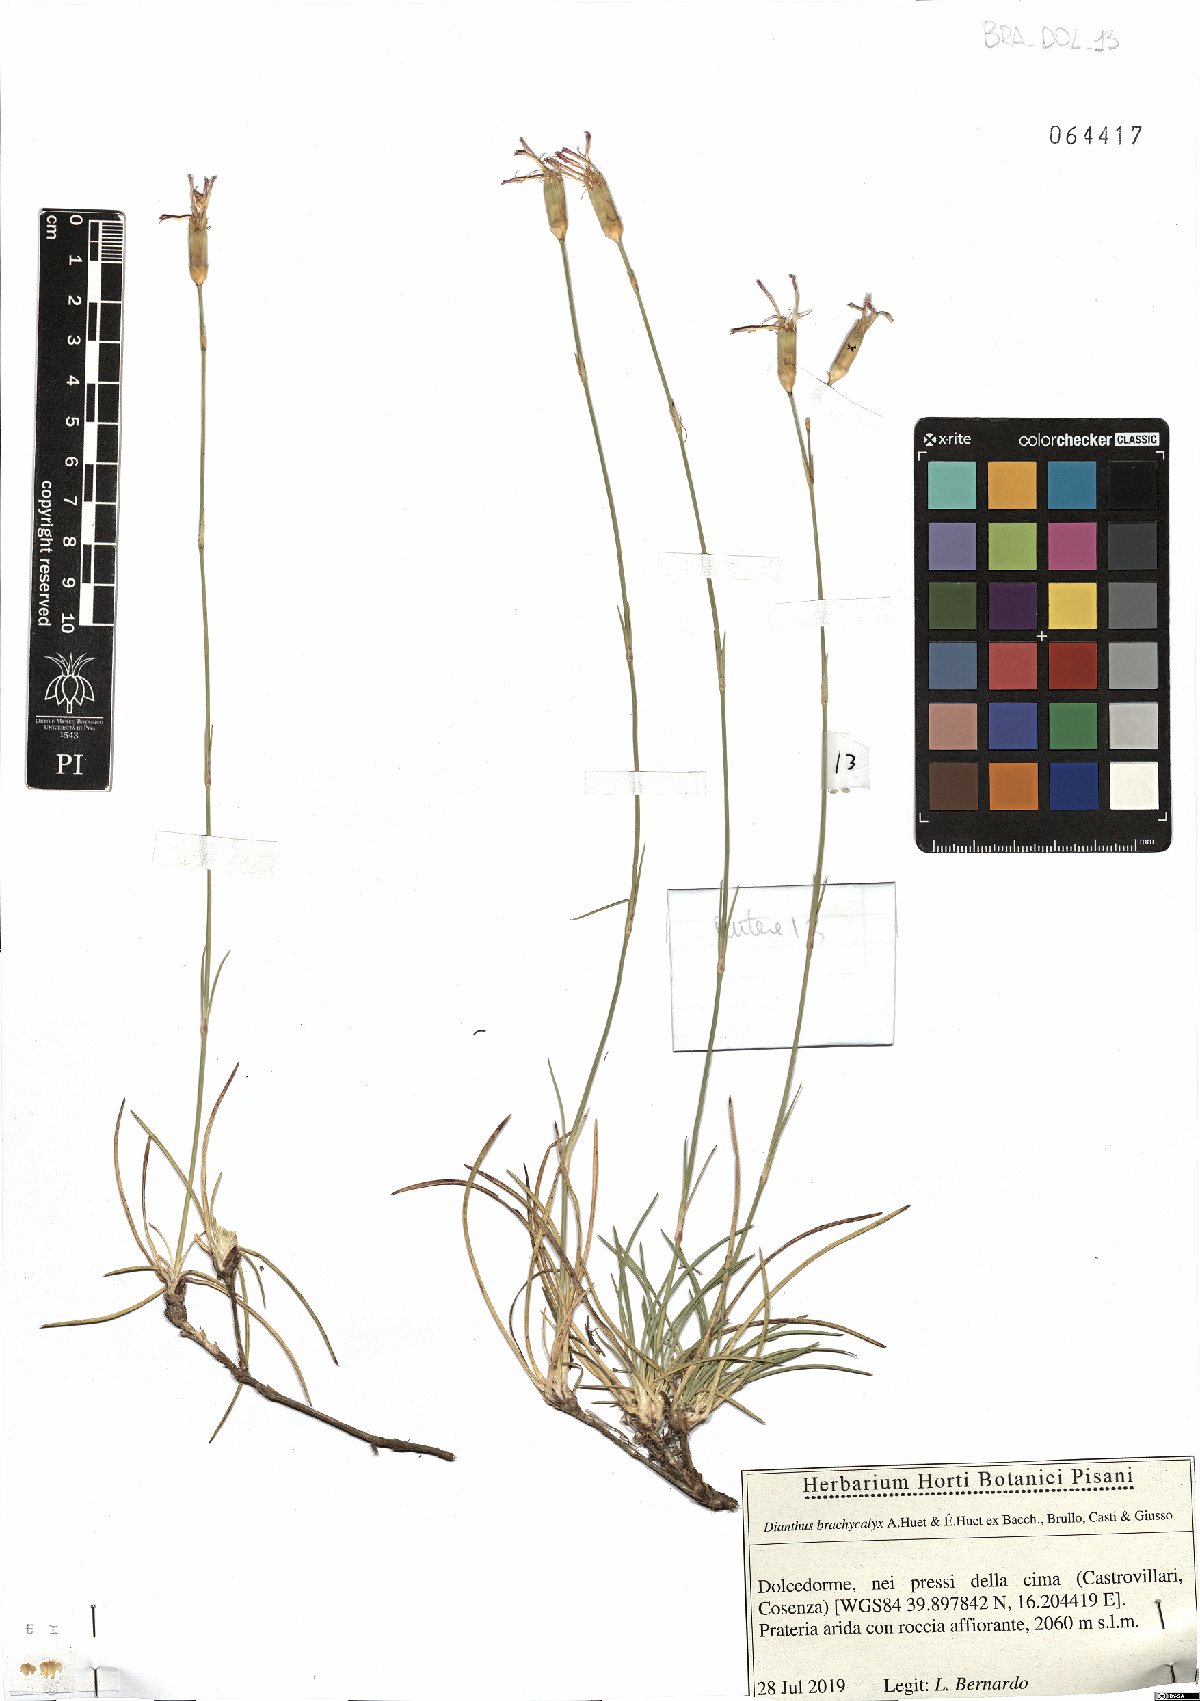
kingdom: Plantae
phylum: Tracheophyta
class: Magnoliopsida
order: Caryophyllales
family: Caryophyllaceae
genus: Dianthus
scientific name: Dianthus brachycalyx
